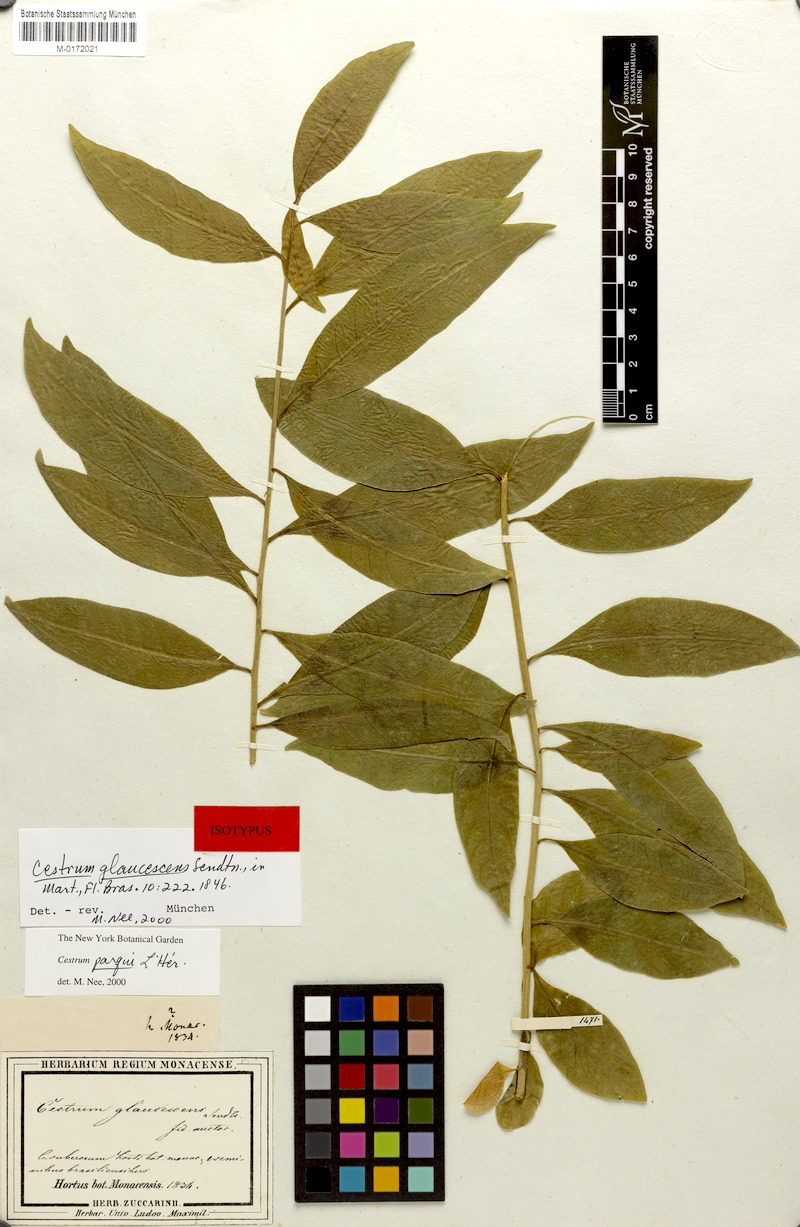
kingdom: Plantae
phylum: Tracheophyta
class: Magnoliopsida
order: Solanales
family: Solanaceae
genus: Cestrum
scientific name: Cestrum thyrsoideum
